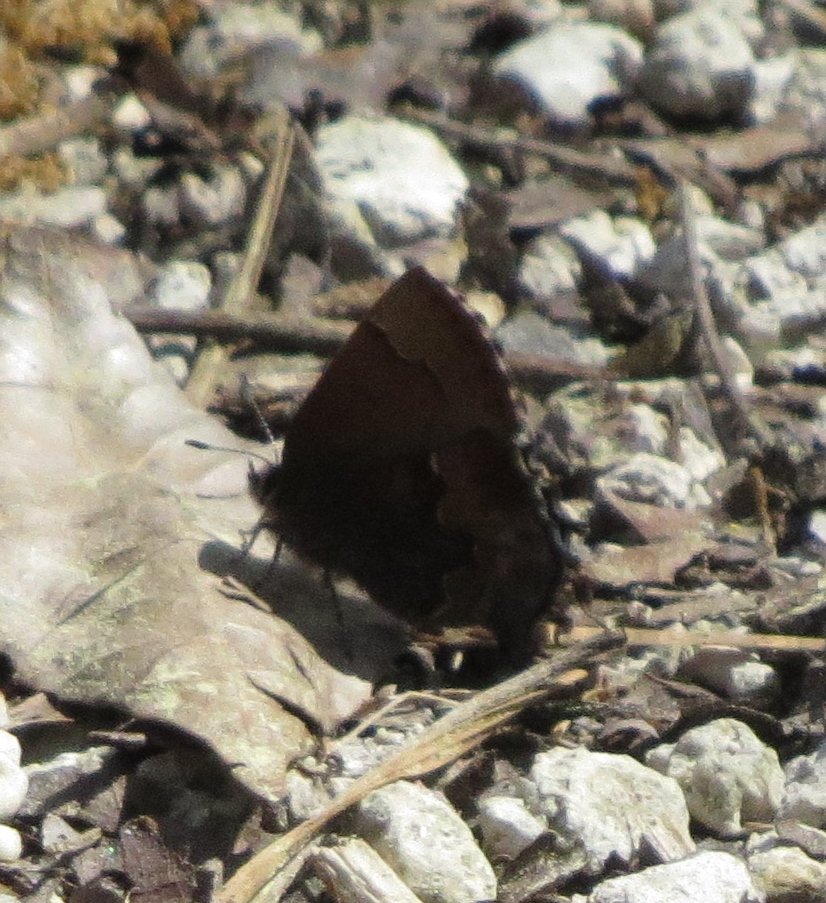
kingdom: Animalia
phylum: Arthropoda
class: Insecta
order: Lepidoptera
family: Lycaenidae
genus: Incisalia
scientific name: Incisalia henrici
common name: Henry's Elfin
